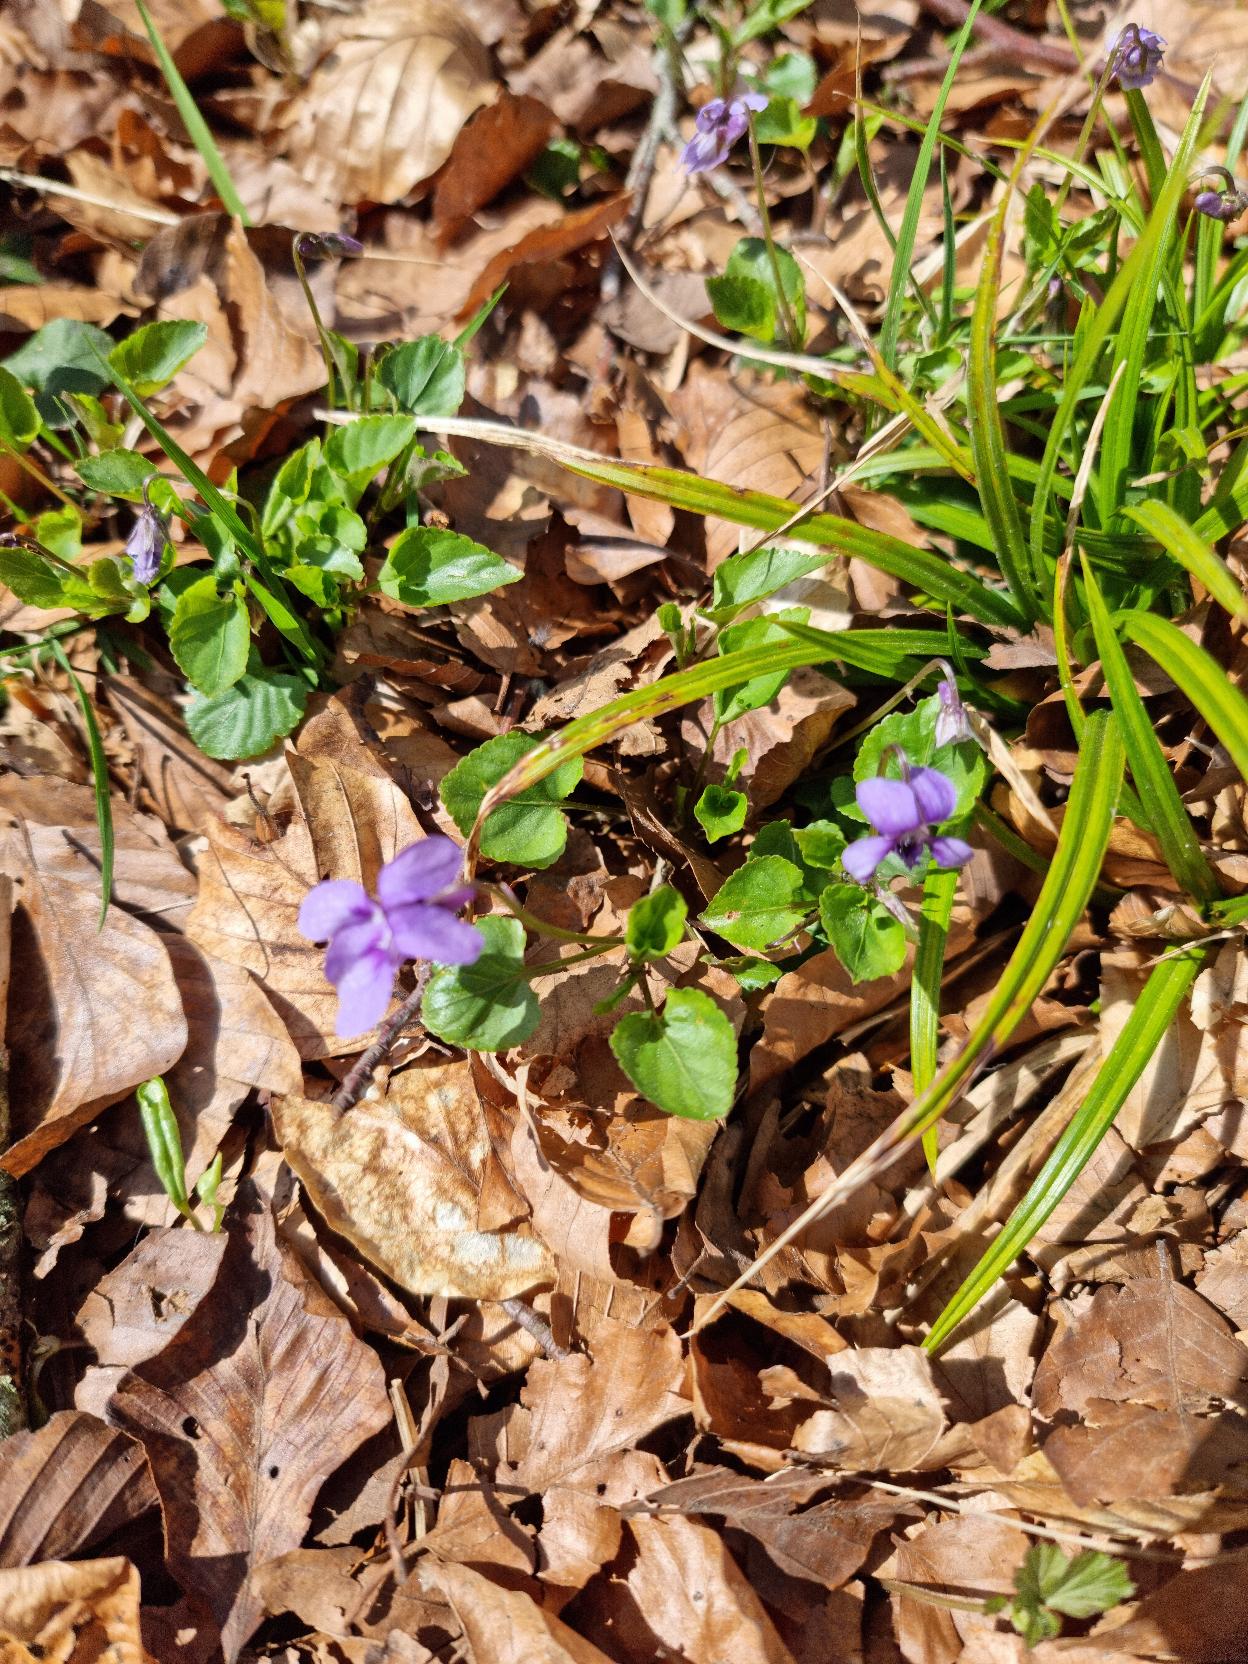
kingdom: Plantae
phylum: Tracheophyta
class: Magnoliopsida
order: Malpighiales
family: Violaceae
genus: Viola
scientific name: Viola reichenbachiana
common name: Skov-viol
